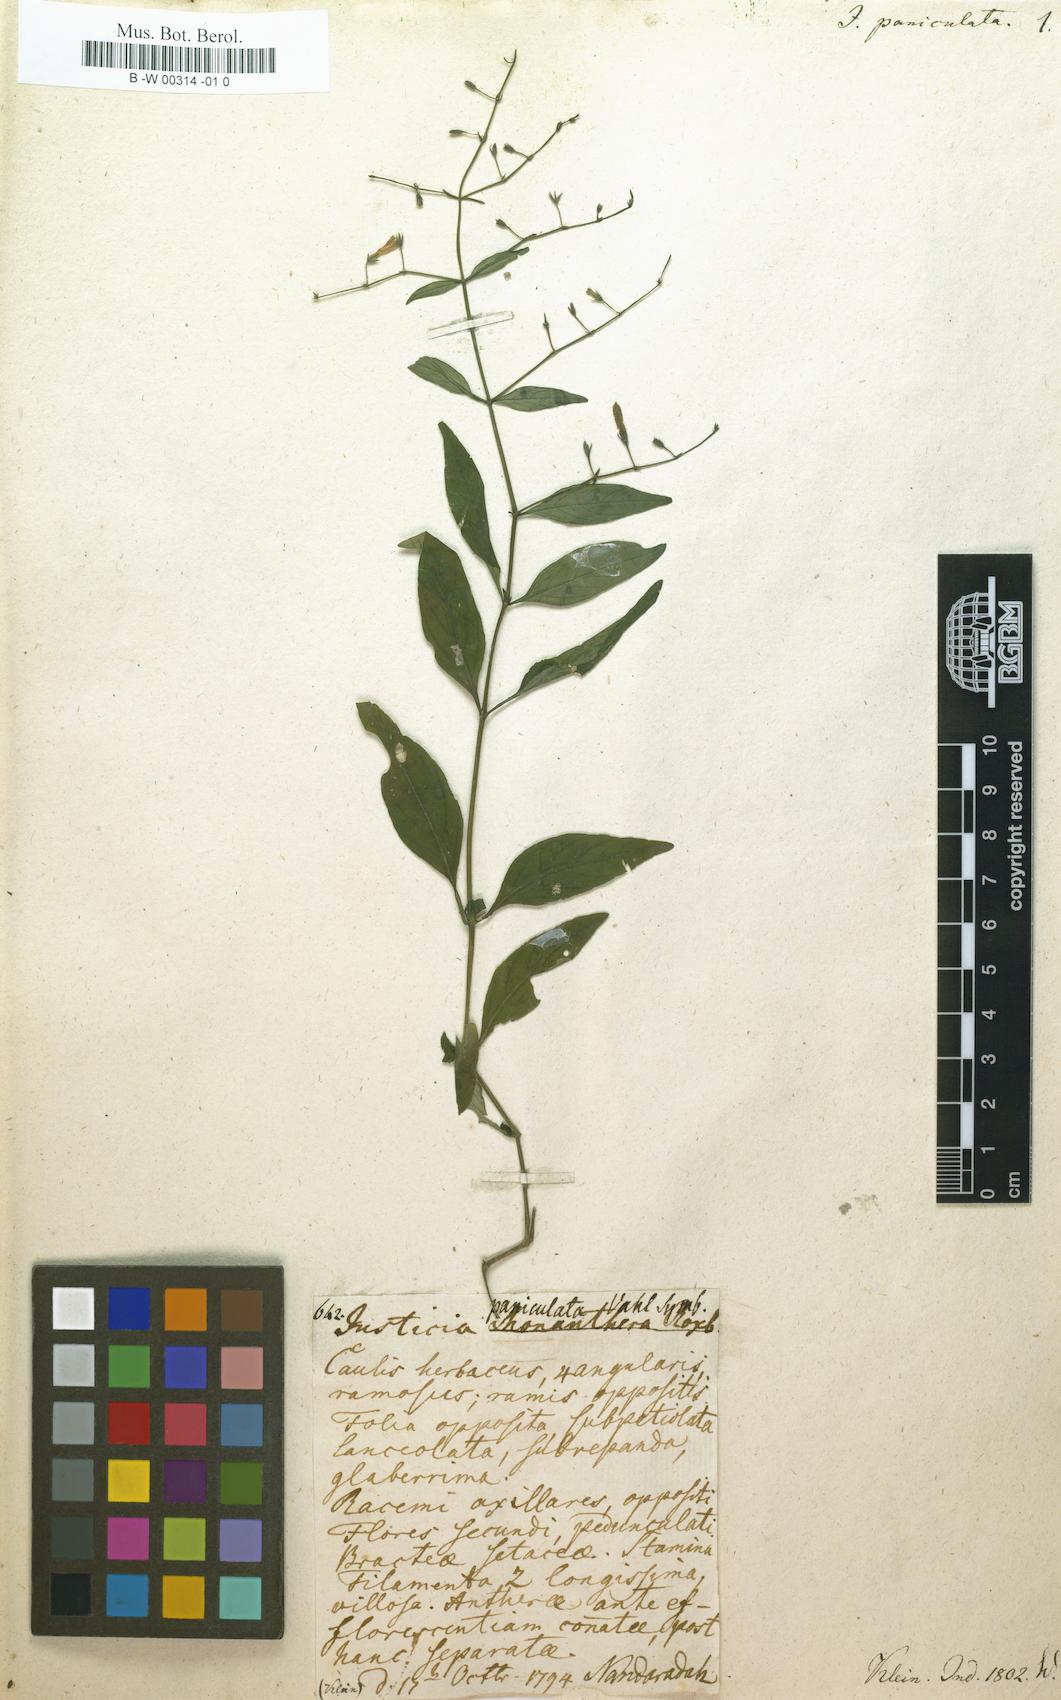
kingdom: Plantae
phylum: Tracheophyta
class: Magnoliopsida
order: Lamiales
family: Acanthaceae
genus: Justicia
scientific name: Justicia paniculata
